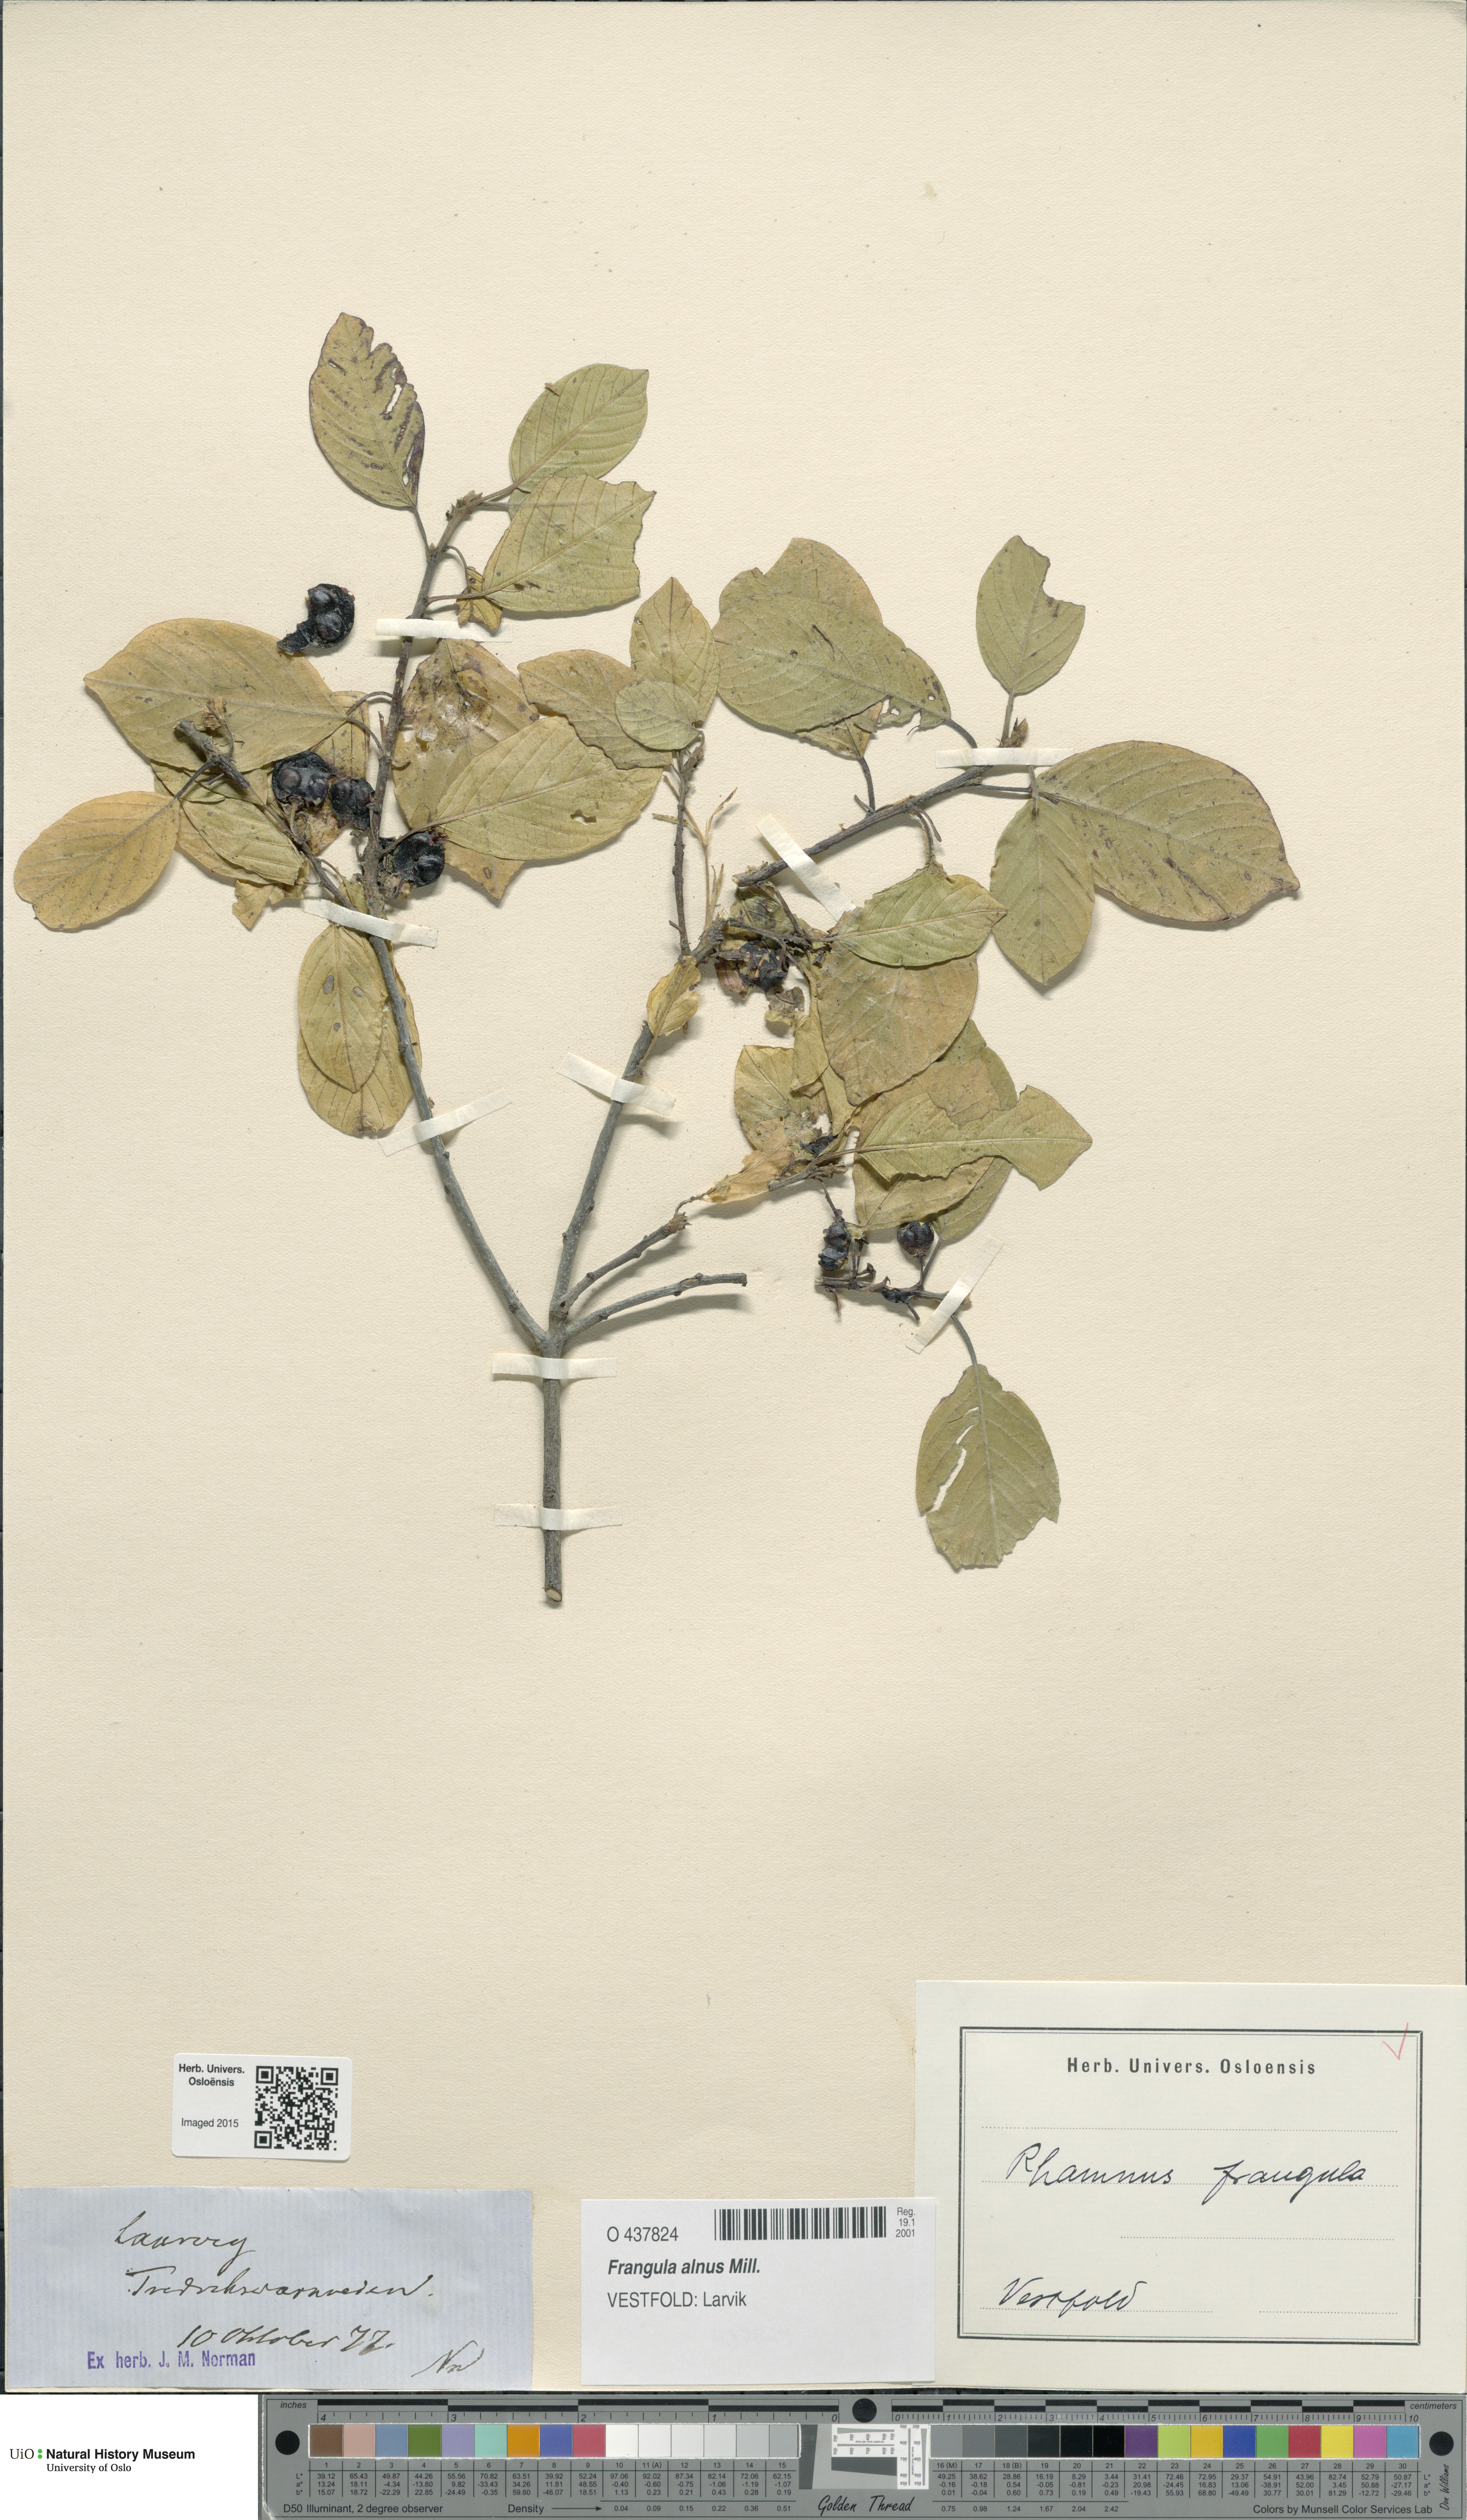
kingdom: Plantae
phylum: Tracheophyta
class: Magnoliopsida
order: Rosales
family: Rhamnaceae
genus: Frangula
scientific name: Frangula alnus
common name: Alder buckthorn
